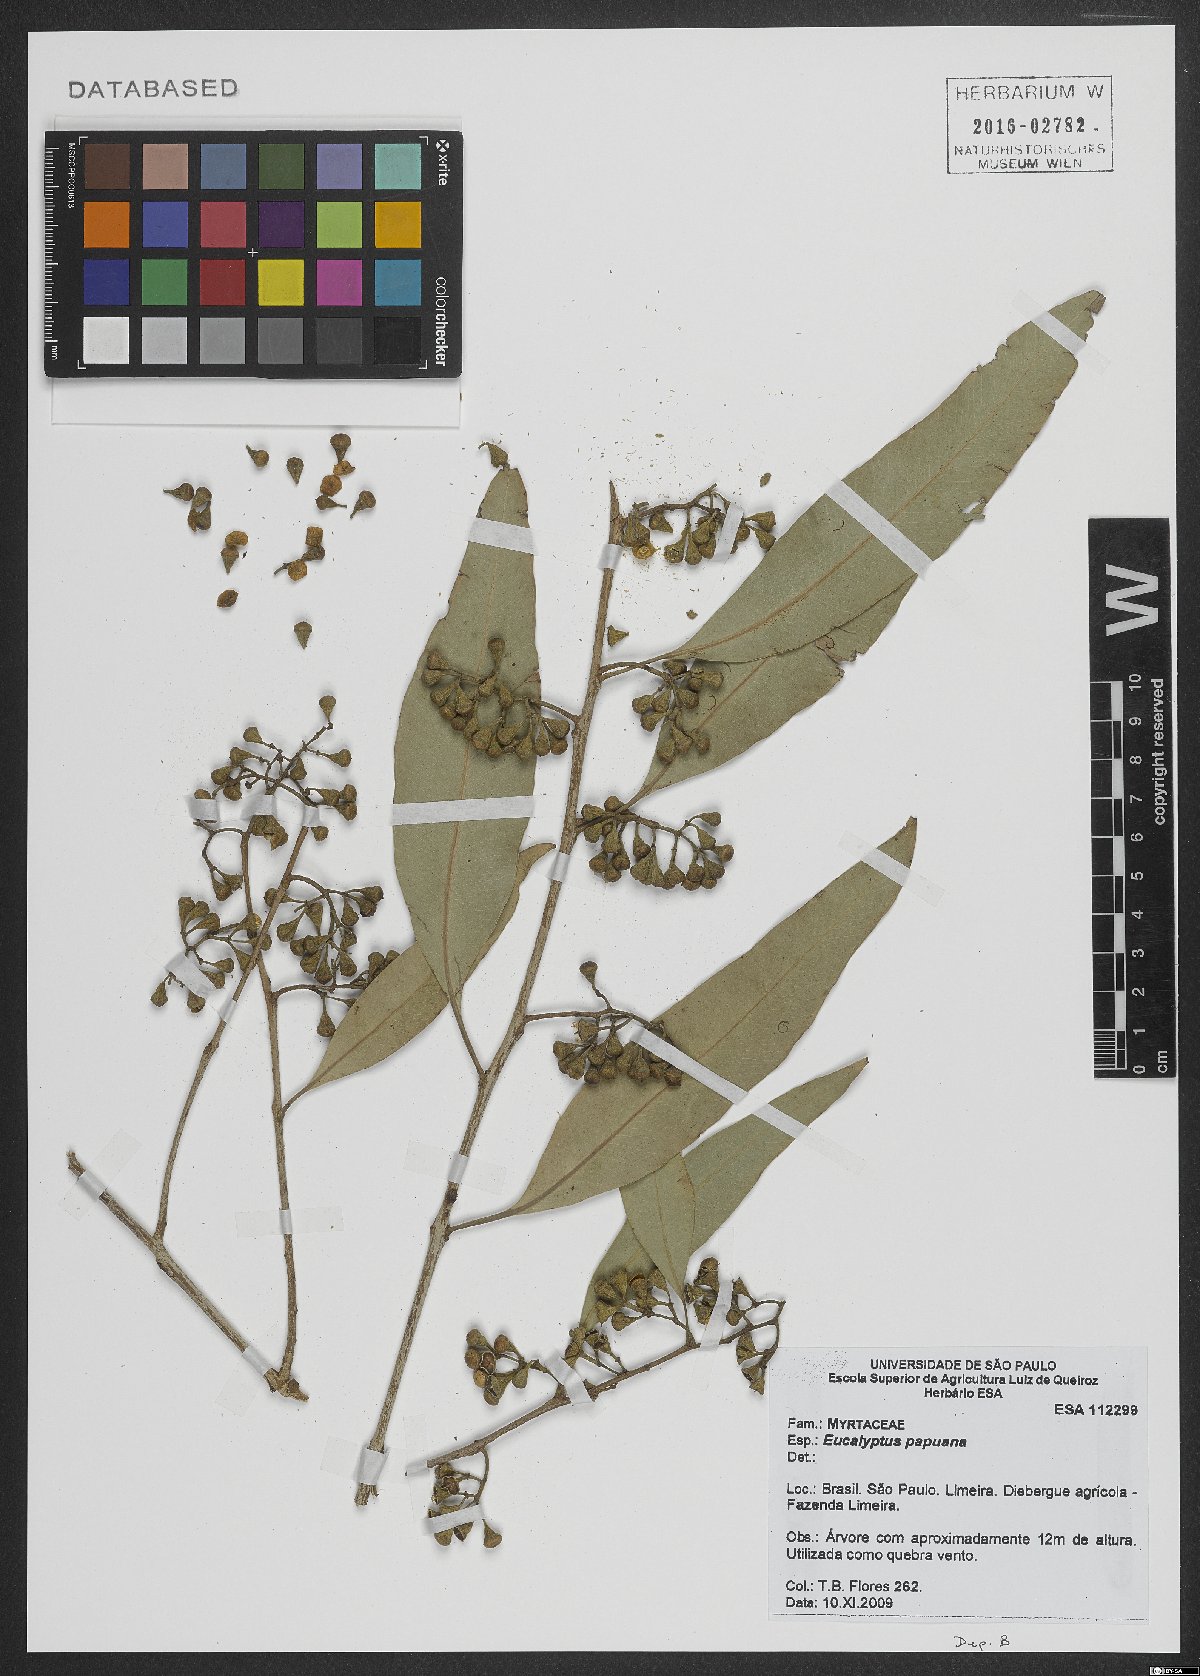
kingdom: Plantae
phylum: Tracheophyta
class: Magnoliopsida
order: Myrtales
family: Myrtaceae
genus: Eucalyptus
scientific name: Eucalyptus
